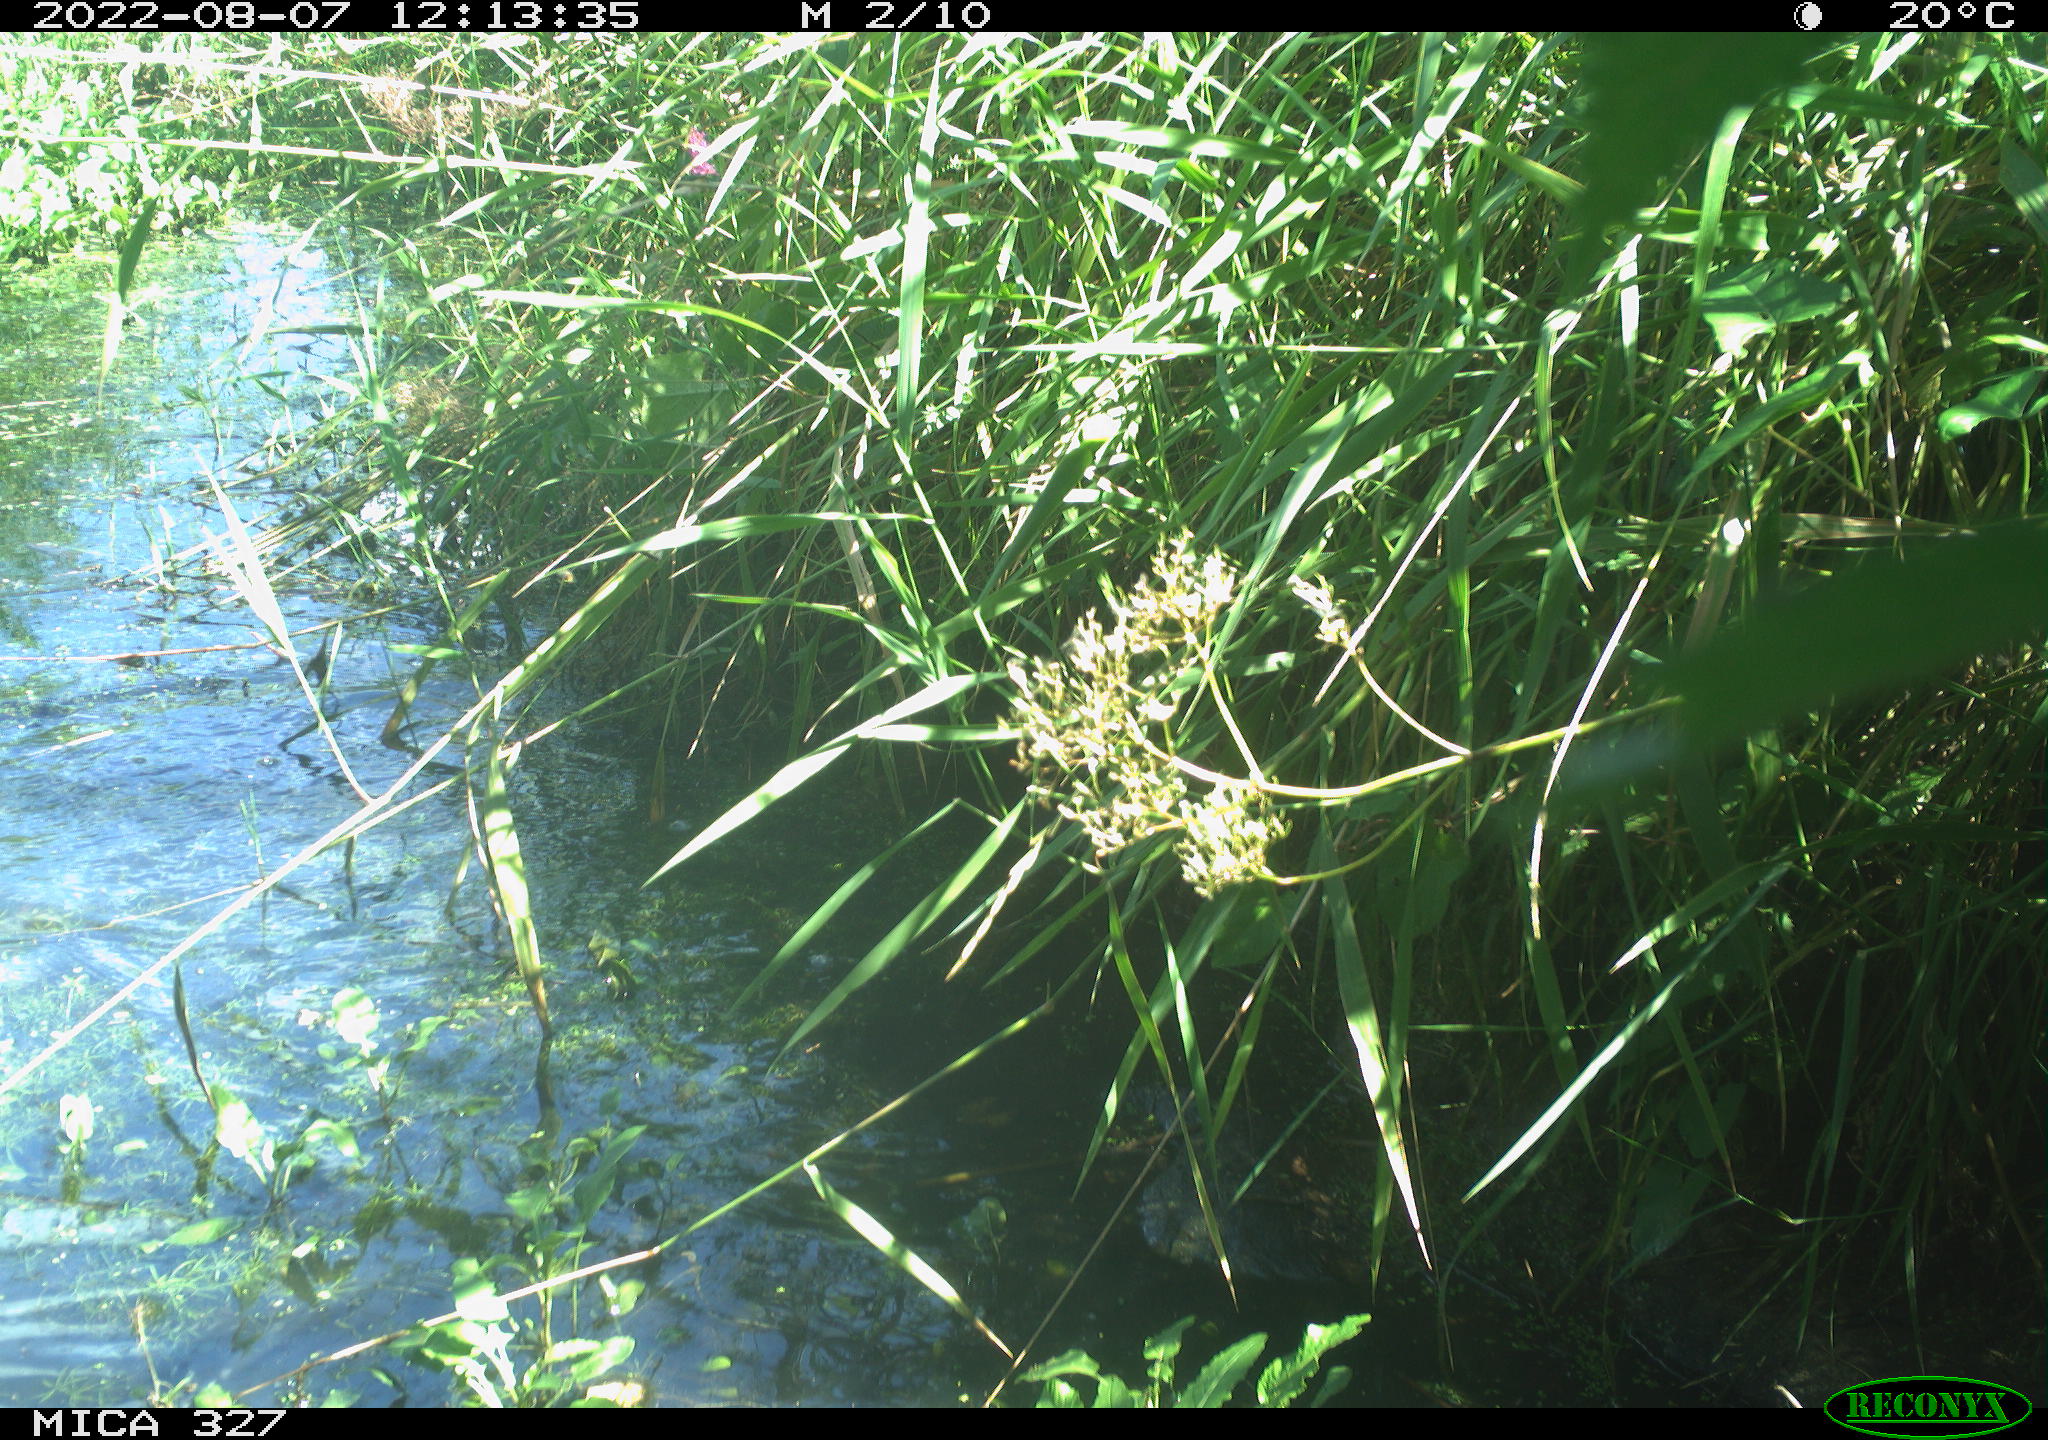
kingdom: Animalia
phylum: Chordata
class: Aves
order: Gruiformes
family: Rallidae
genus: Gallinula
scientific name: Gallinula chloropus
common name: Common moorhen
